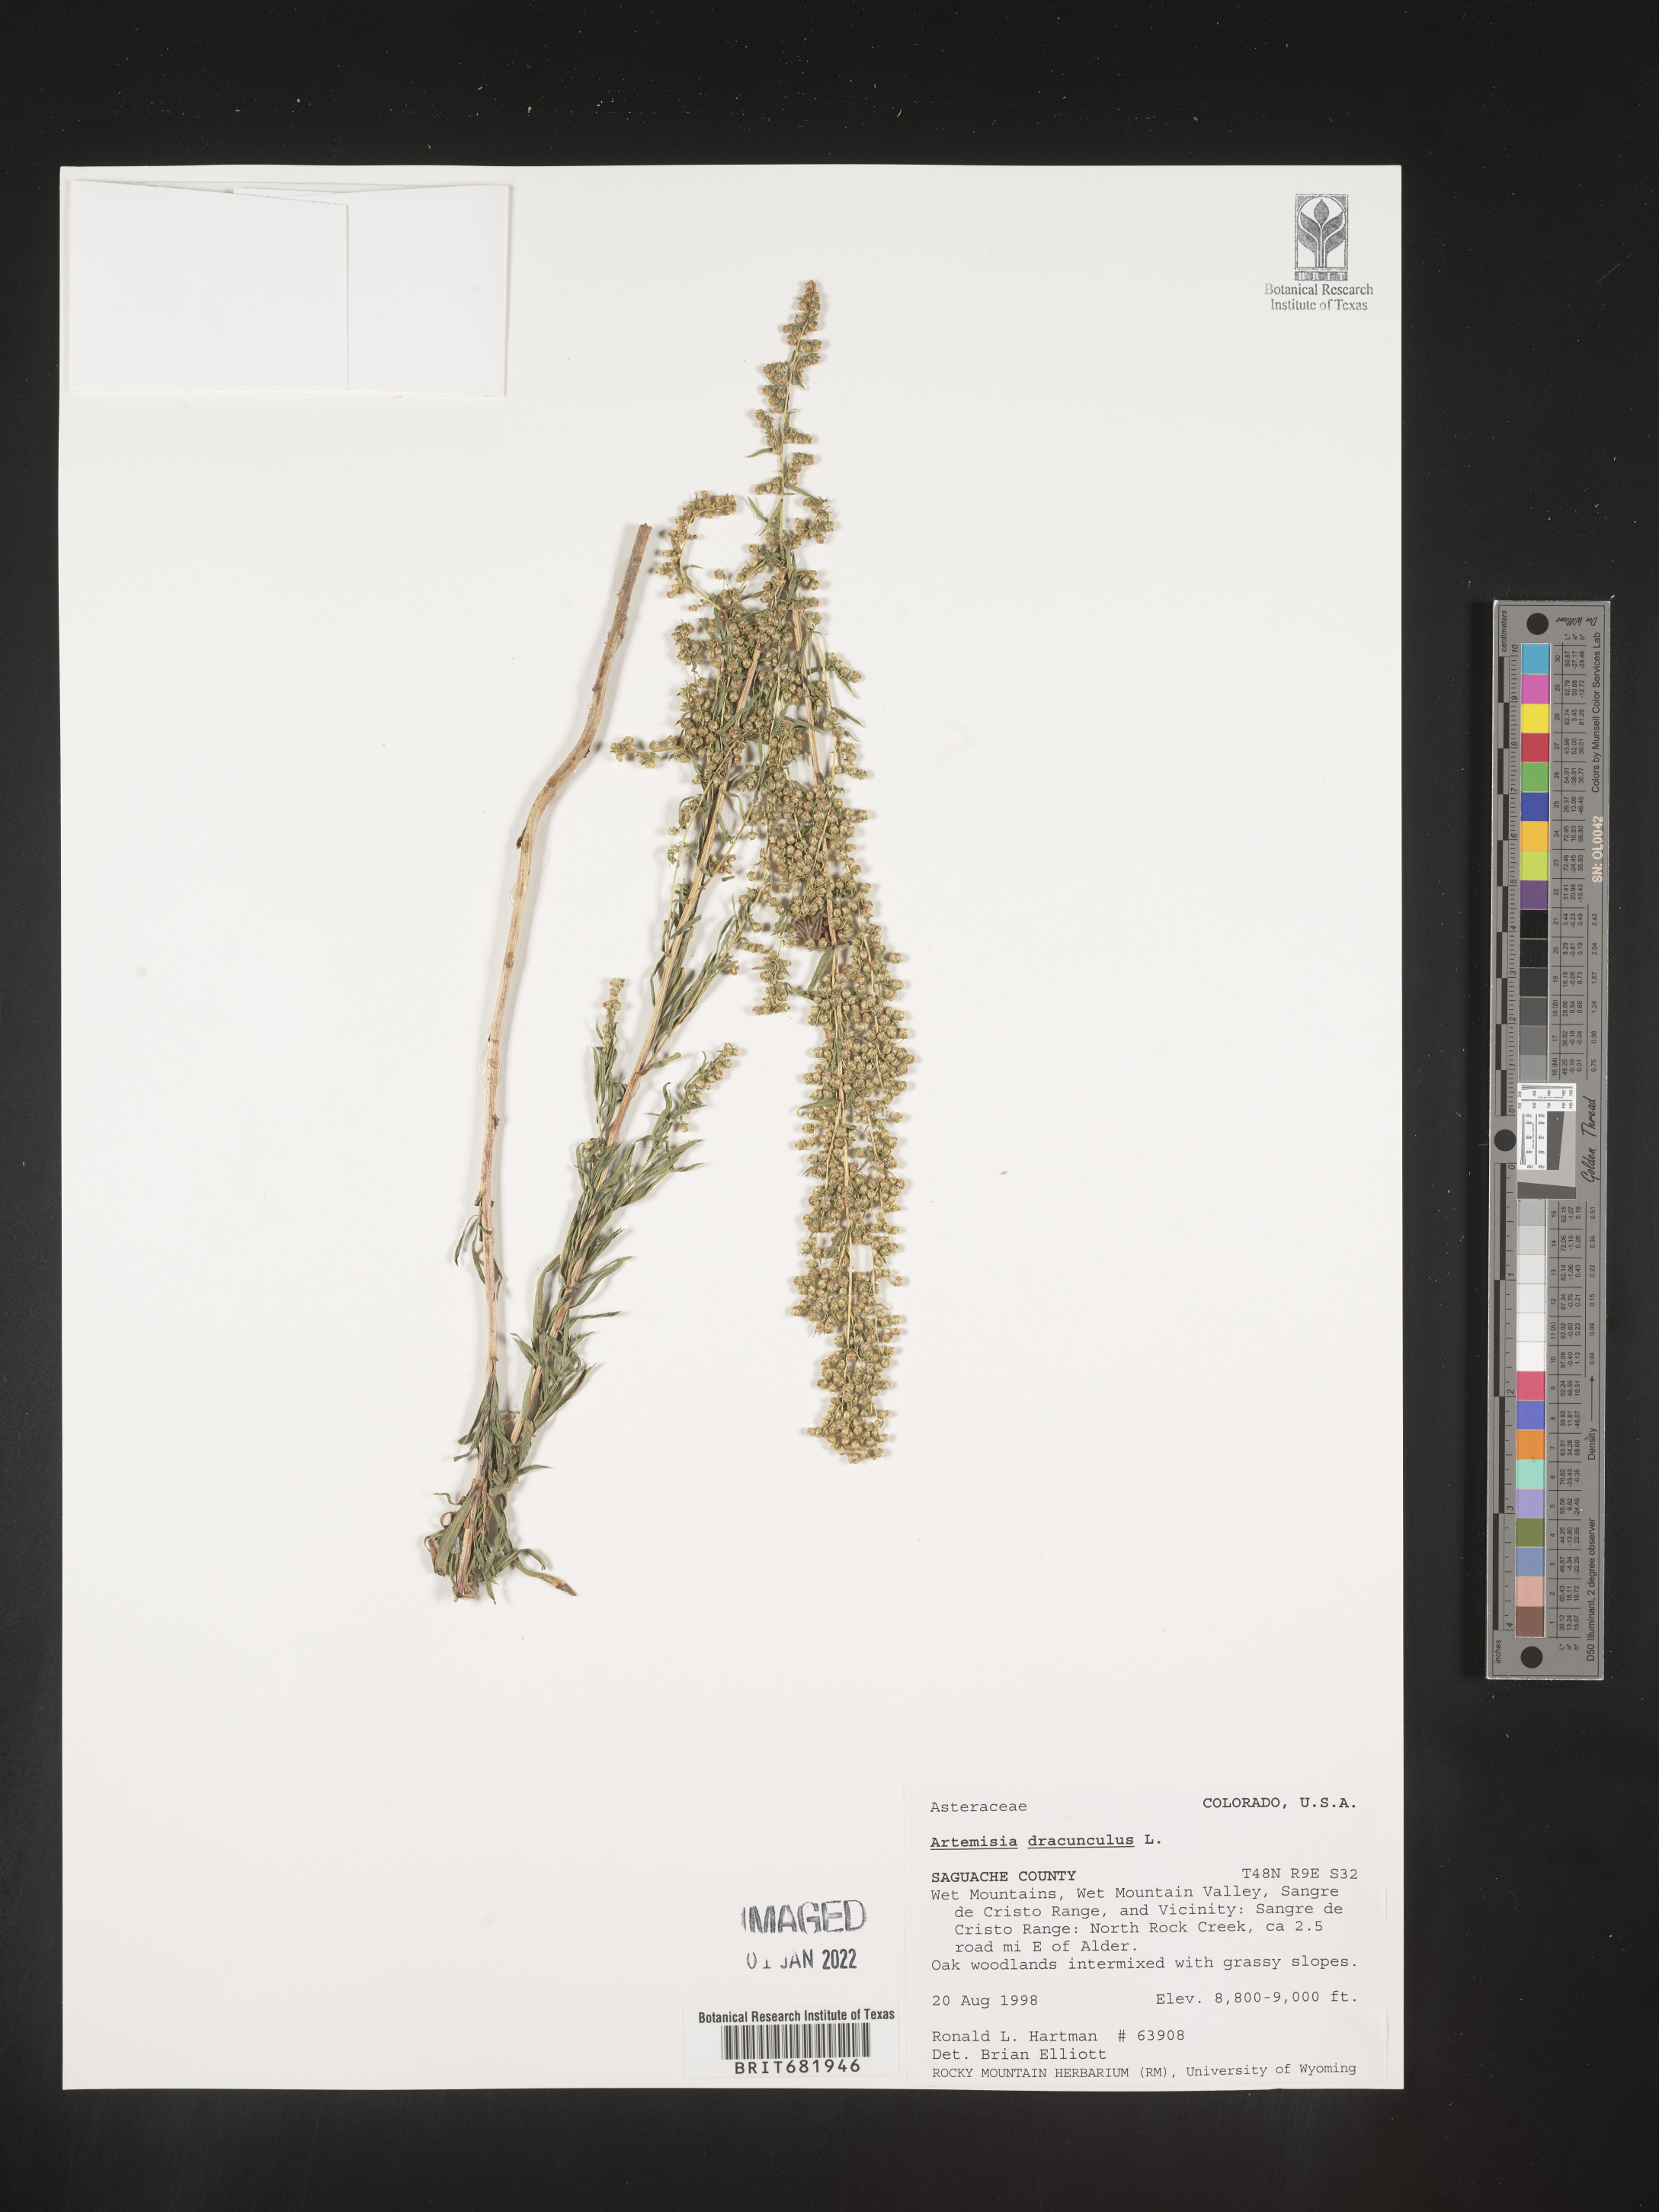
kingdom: Plantae
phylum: Tracheophyta
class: Magnoliopsida
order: Asterales
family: Asteraceae
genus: Artemisia
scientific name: Artemisia dracunculus
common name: Tarragon
